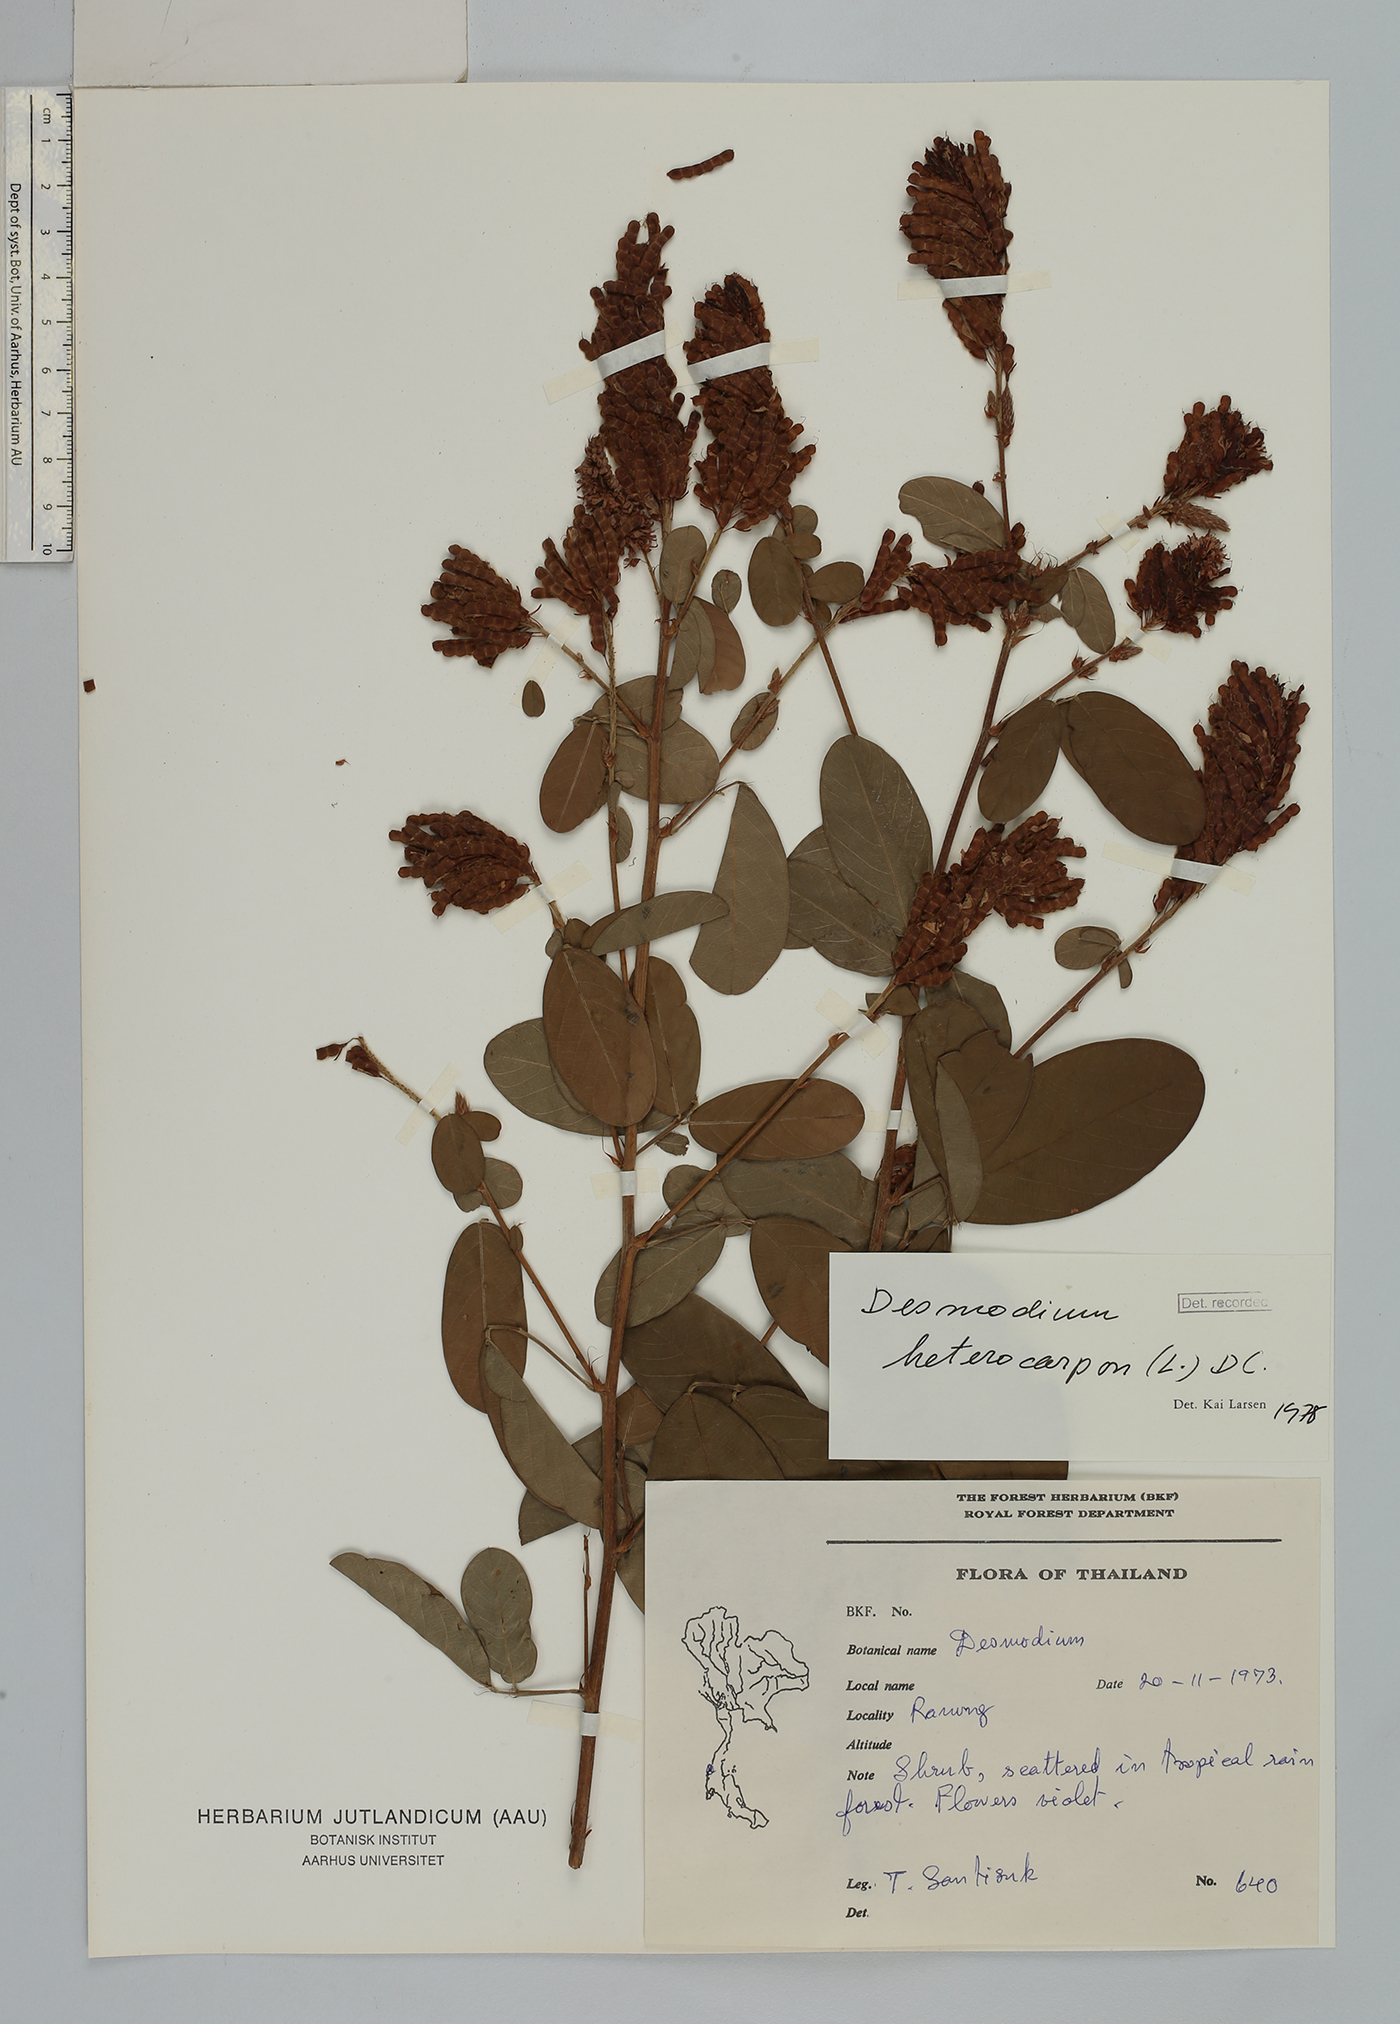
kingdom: Plantae
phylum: Tracheophyta
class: Magnoliopsida
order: Fabales
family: Fabaceae
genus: Grona
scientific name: Grona heterocarpos
